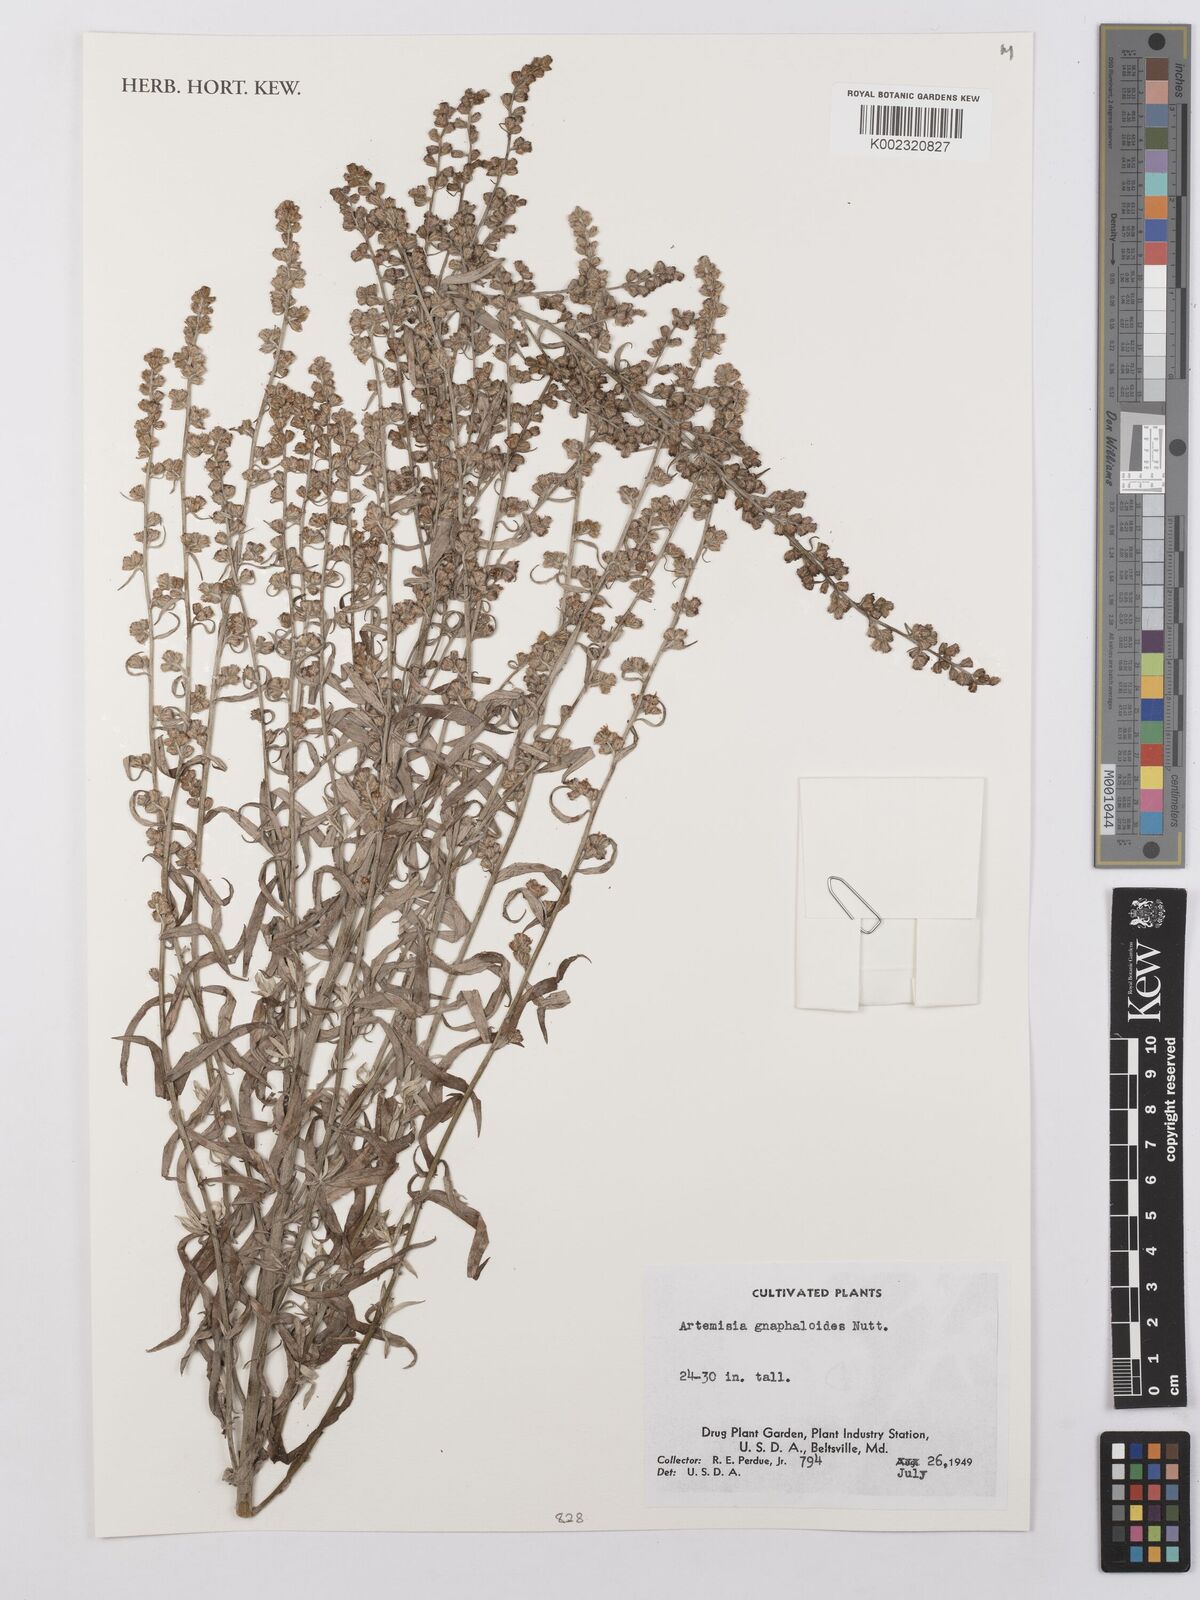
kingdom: Plantae
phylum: Tracheophyta
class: Magnoliopsida
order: Asterales
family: Asteraceae
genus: Artemisia
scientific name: Artemisia ludoviciana
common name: Western mugwort
